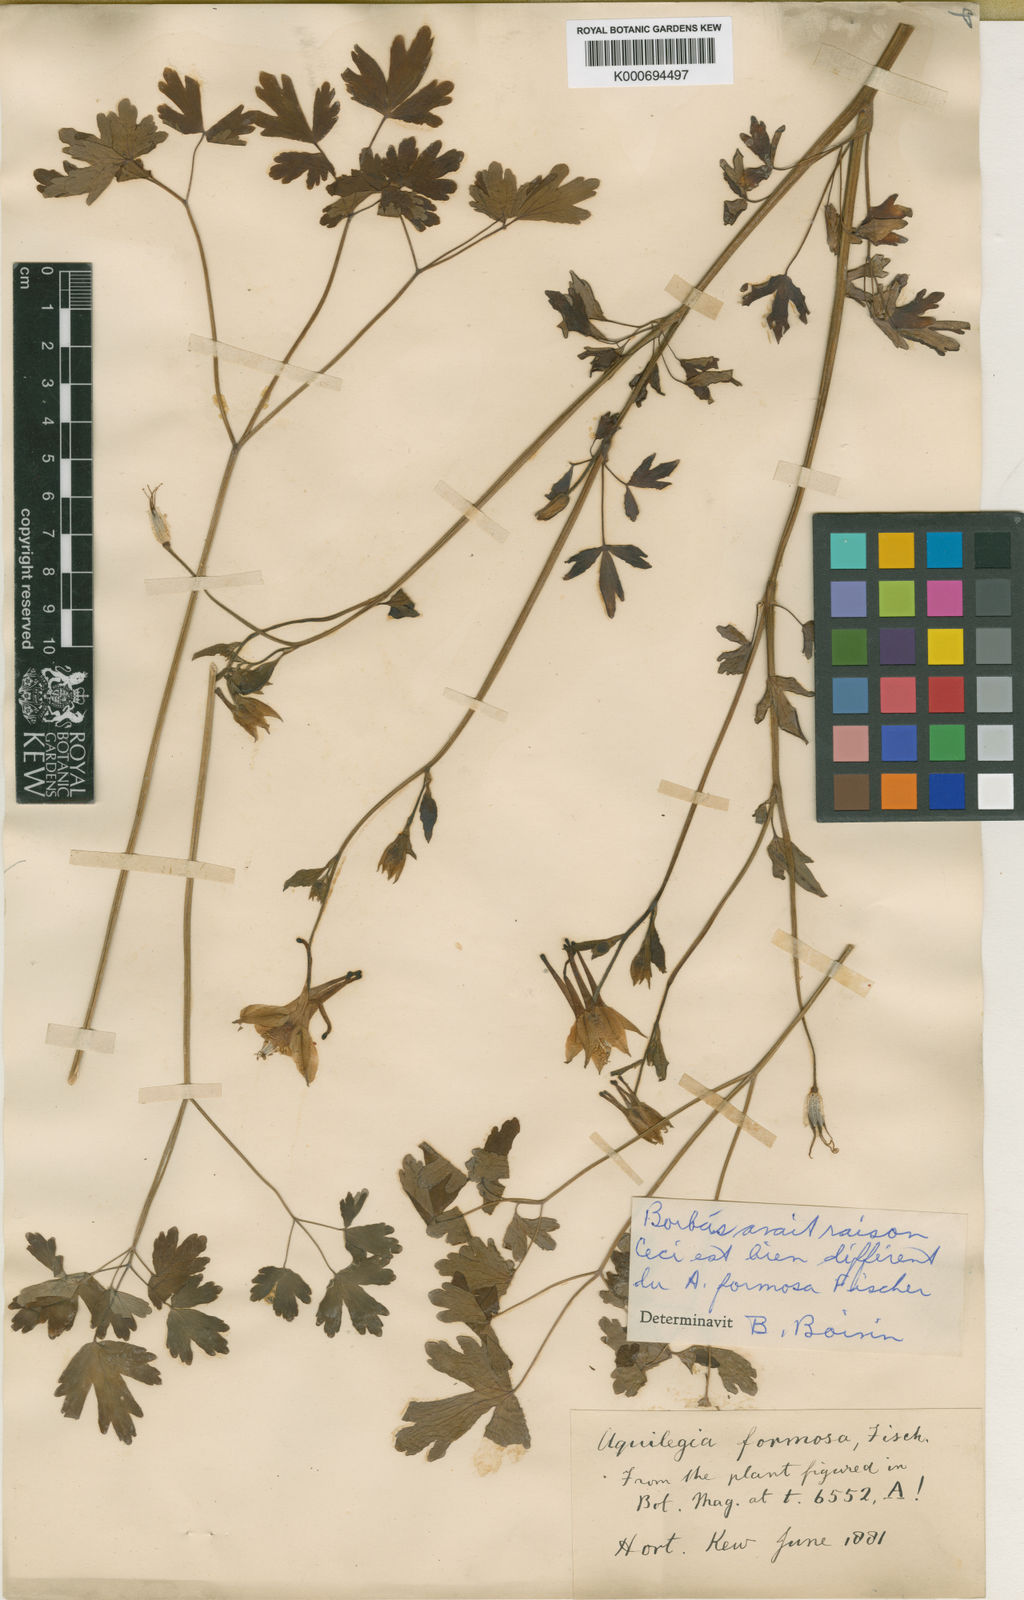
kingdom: Plantae
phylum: Tracheophyta
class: Magnoliopsida
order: Ranunculales
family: Ranunculaceae
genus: Aquilegia
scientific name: Aquilegia
